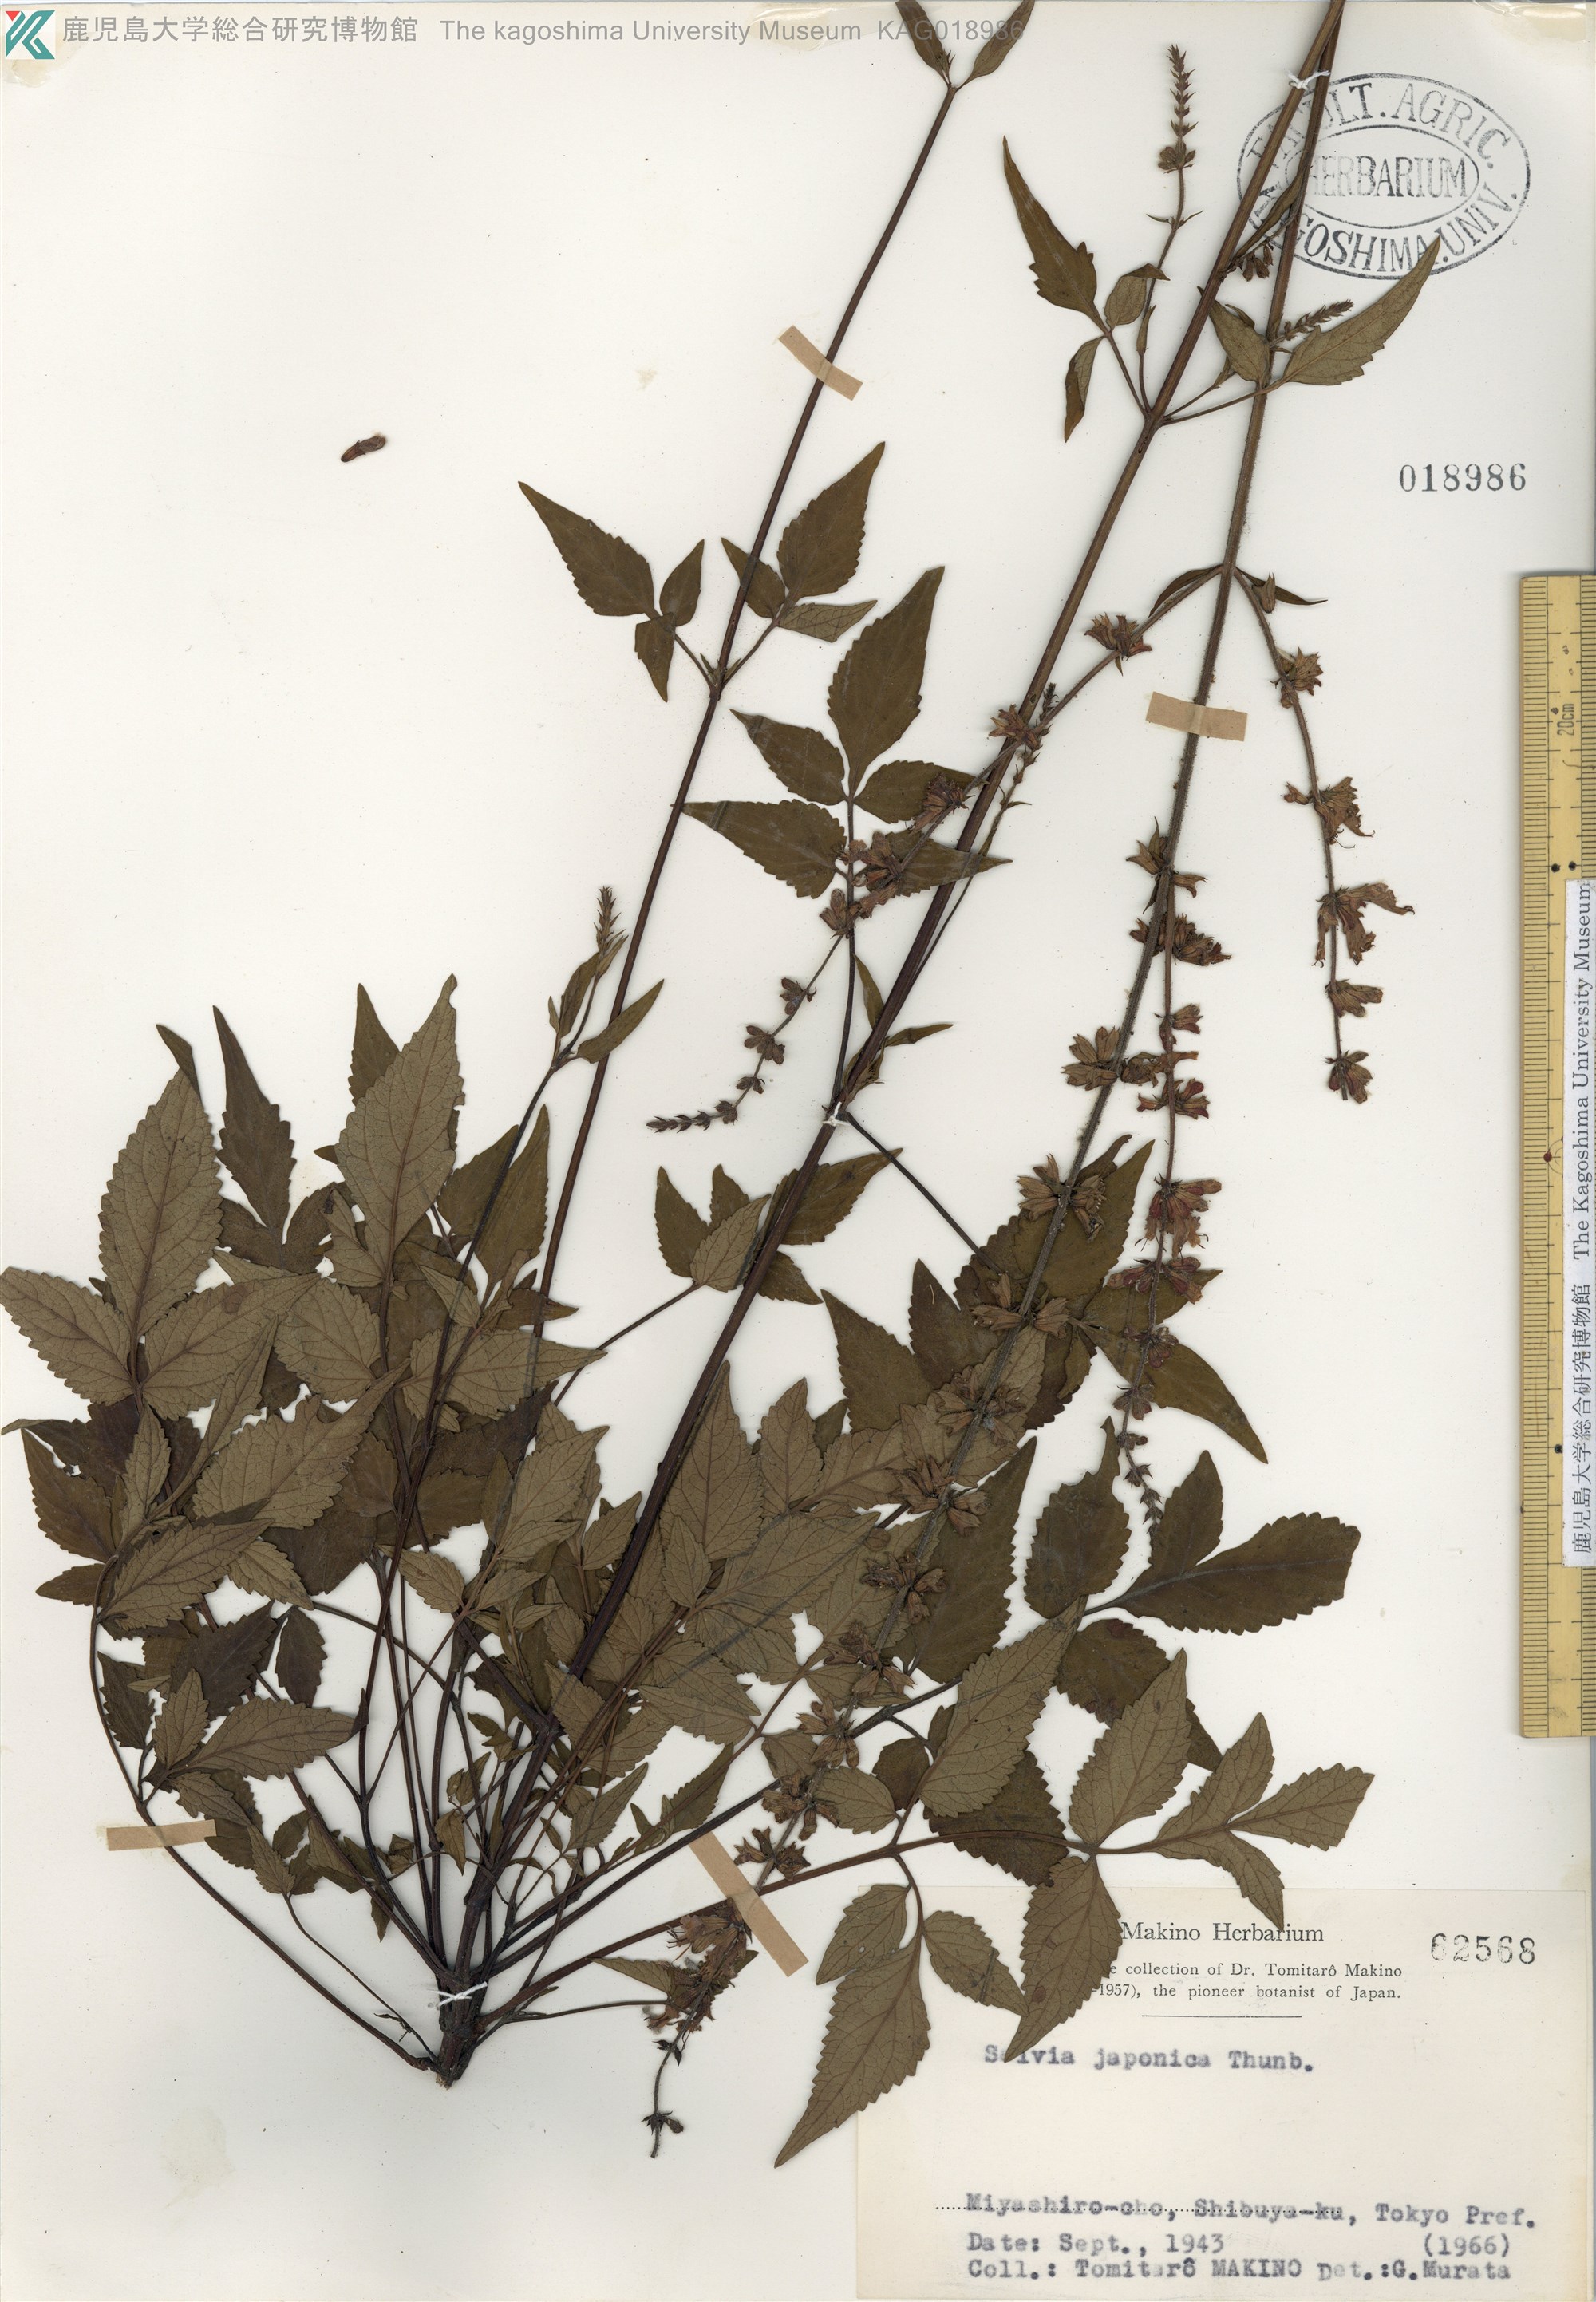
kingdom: Plantae
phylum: Tracheophyta
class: Magnoliopsida
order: Lamiales
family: Lamiaceae
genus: Salvia
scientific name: Salvia japonica
